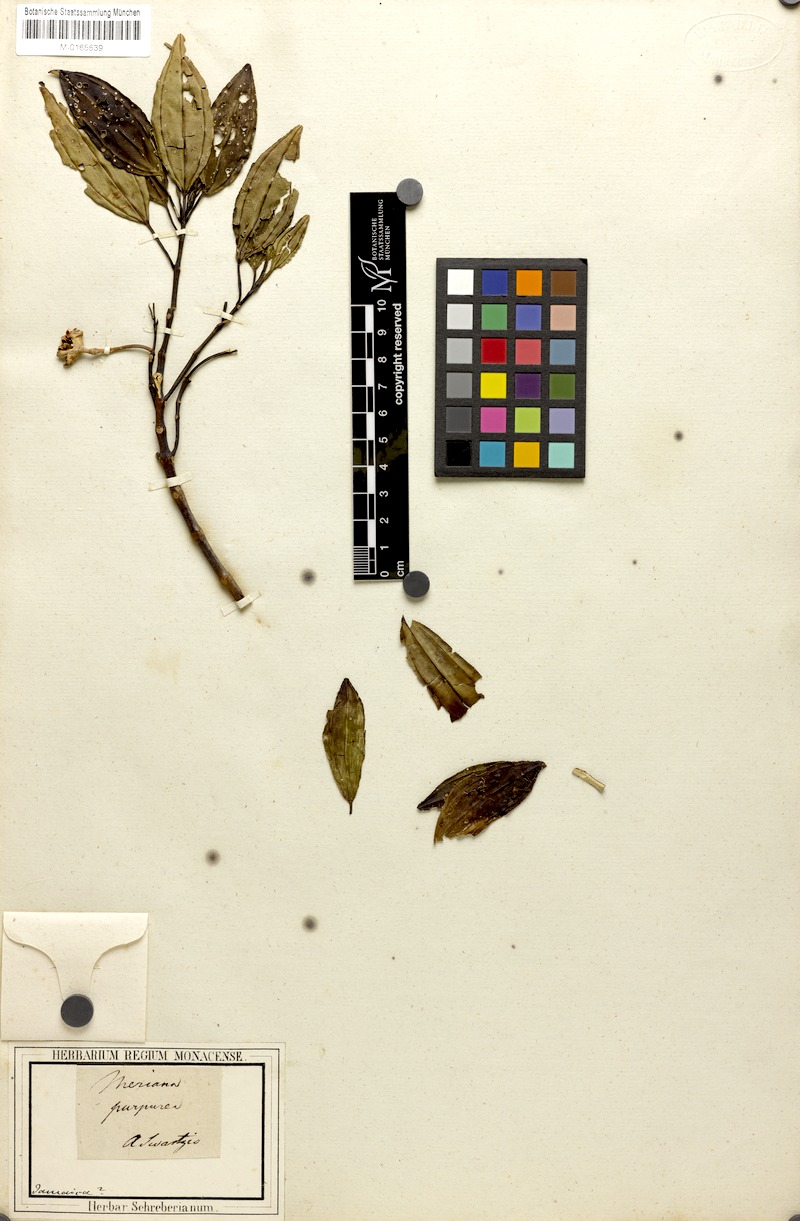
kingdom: Plantae
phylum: Tracheophyta
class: Magnoliopsida
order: Myrtales
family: Melastomataceae
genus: Meriania
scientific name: Meriania purpurea
